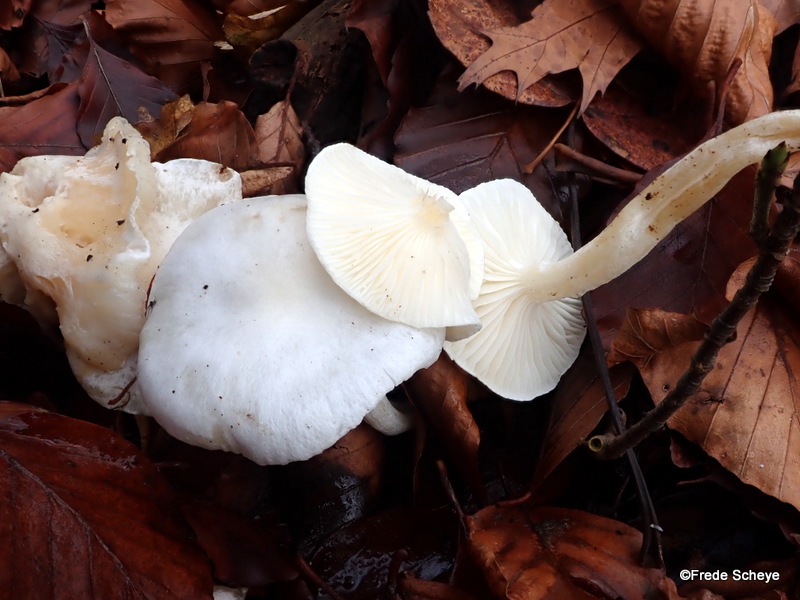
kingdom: Fungi
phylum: Basidiomycota
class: Agaricomycetes
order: Agaricales
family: Hygrophoraceae
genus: Hygrophorus
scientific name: Hygrophorus discoxanthus
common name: ildelugtende sneglehat
